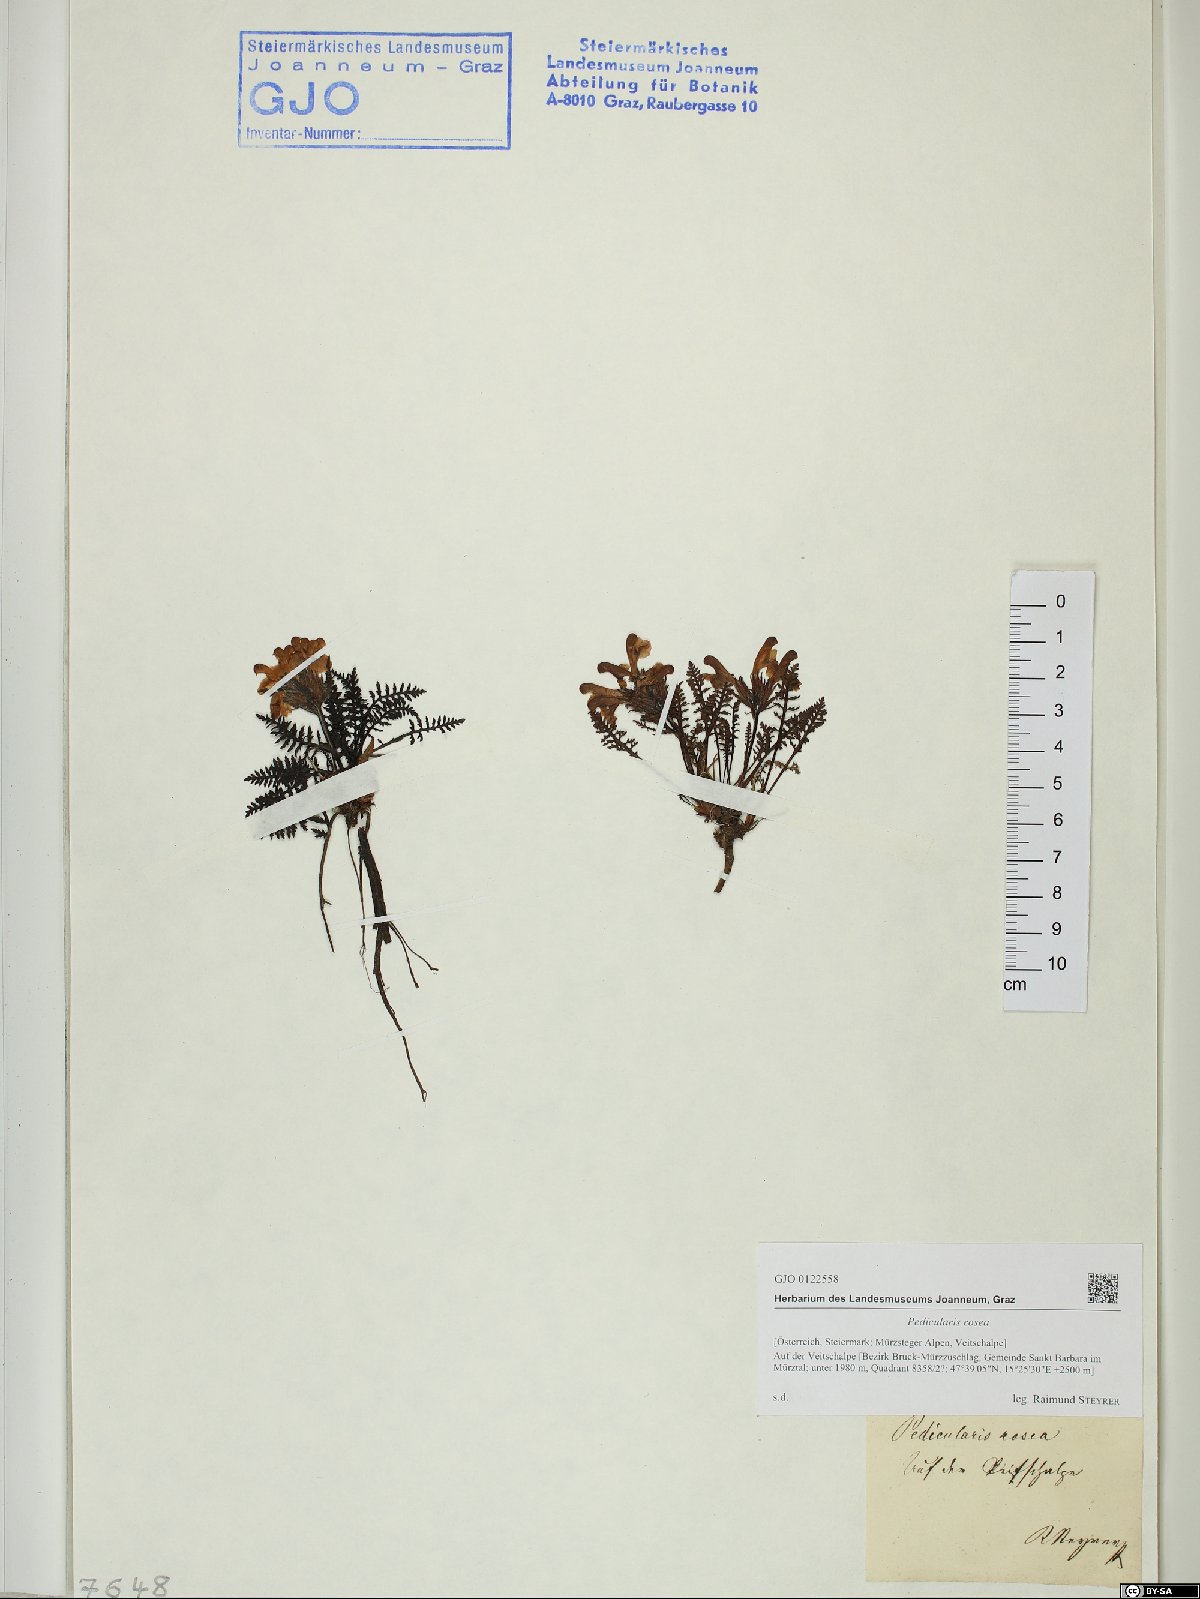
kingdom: Plantae
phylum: Tracheophyta
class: Magnoliopsida
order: Lamiales
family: Orobanchaceae
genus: Pedicularis
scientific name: Pedicularis rosea
